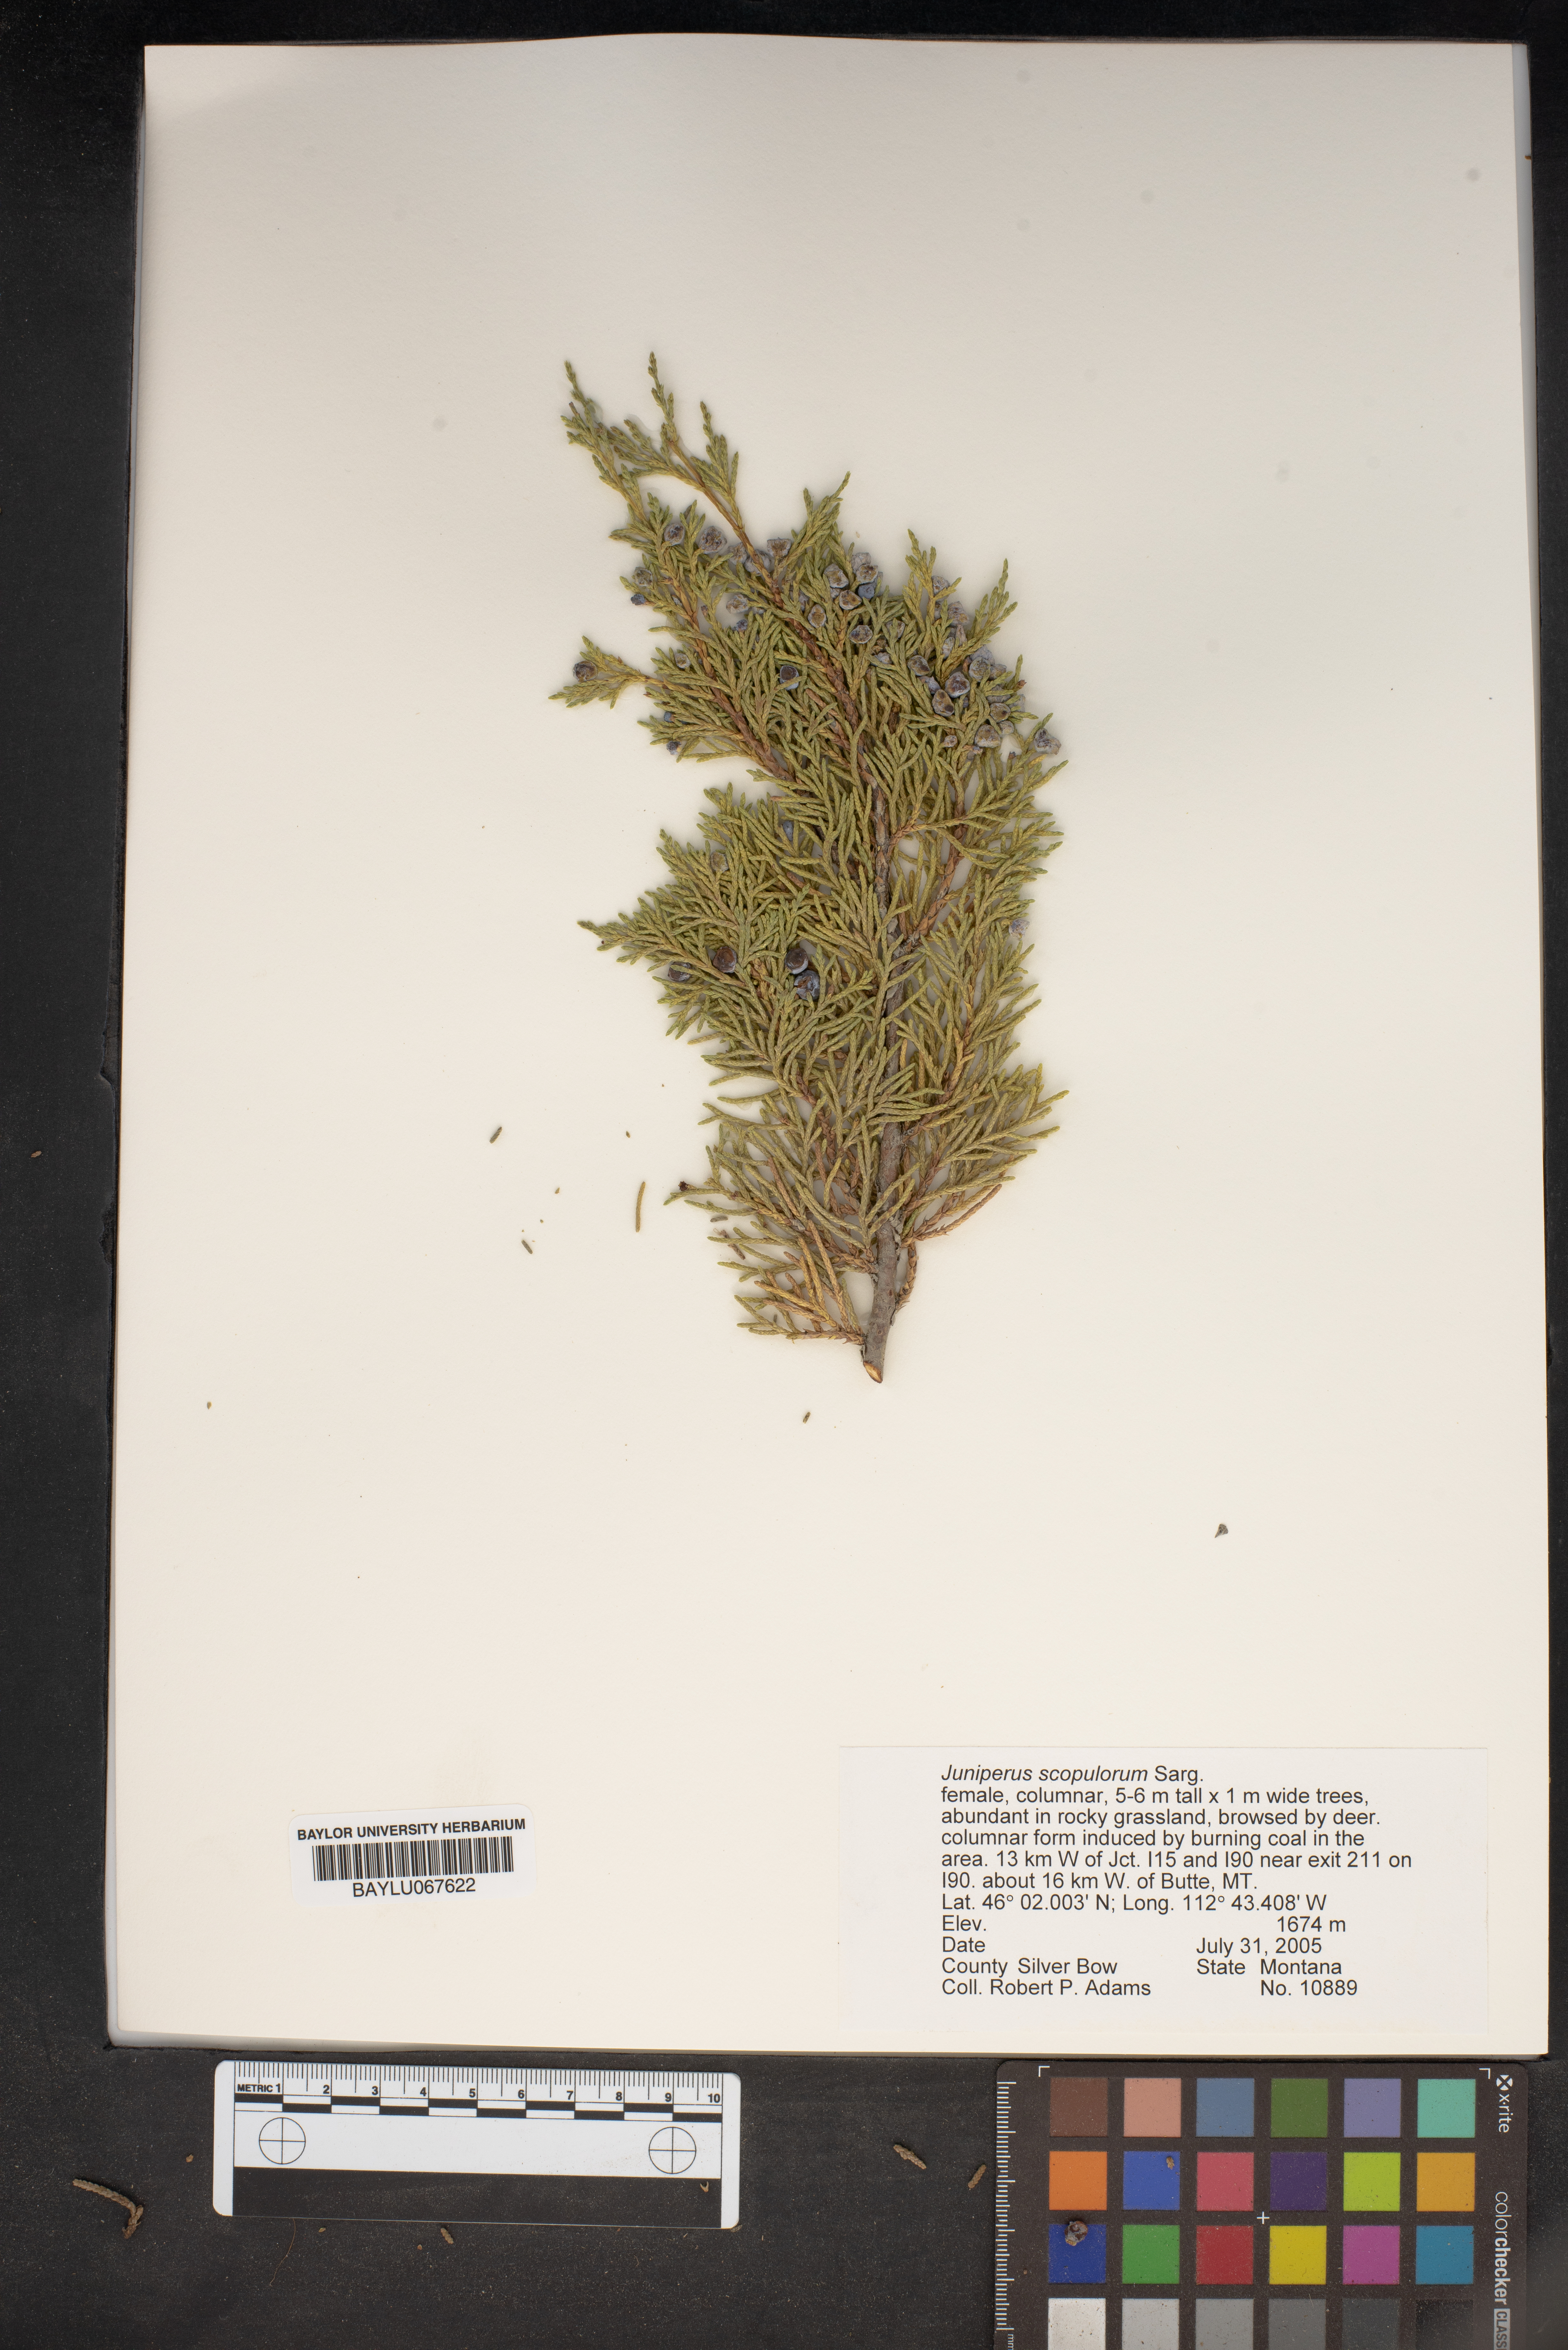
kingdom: Plantae
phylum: Tracheophyta
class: Pinopsida
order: Pinales
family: Cupressaceae
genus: Juniperus
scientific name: Juniperus scopulorum
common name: Rocky mountain juniper
